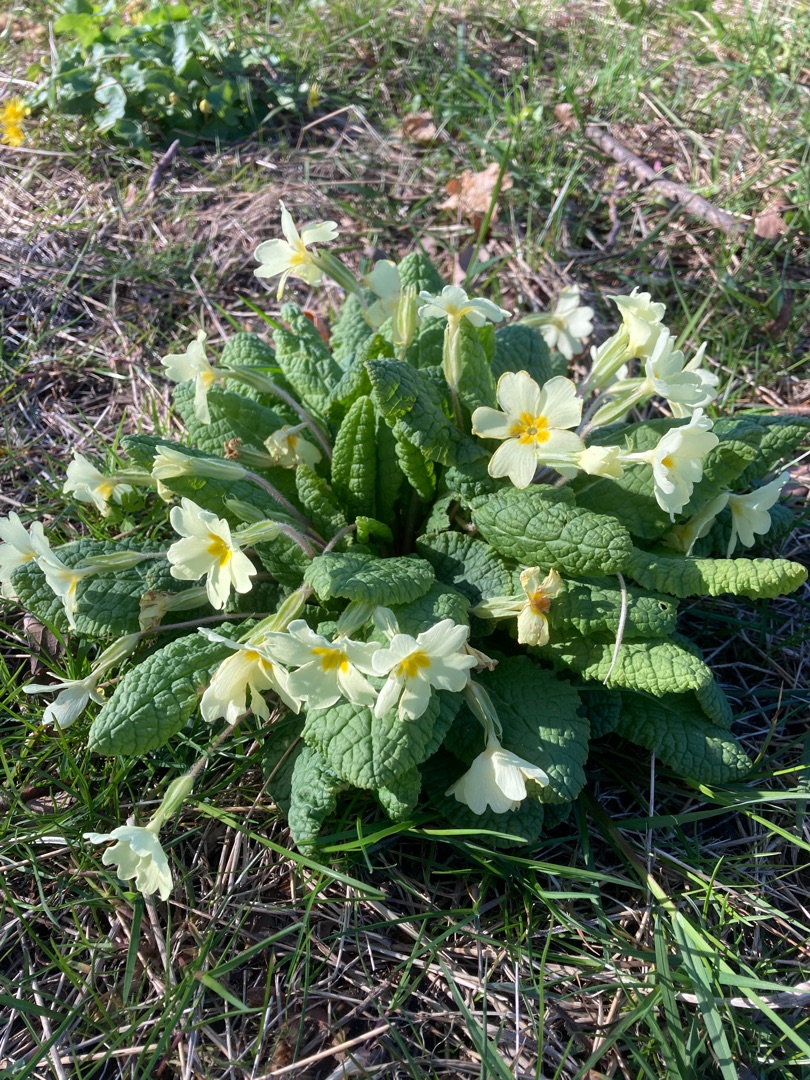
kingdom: Plantae
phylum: Tracheophyta
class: Magnoliopsida
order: Ericales
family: Primulaceae
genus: Primula
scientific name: Primula vulgaris
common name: Storblomstret kodriver
